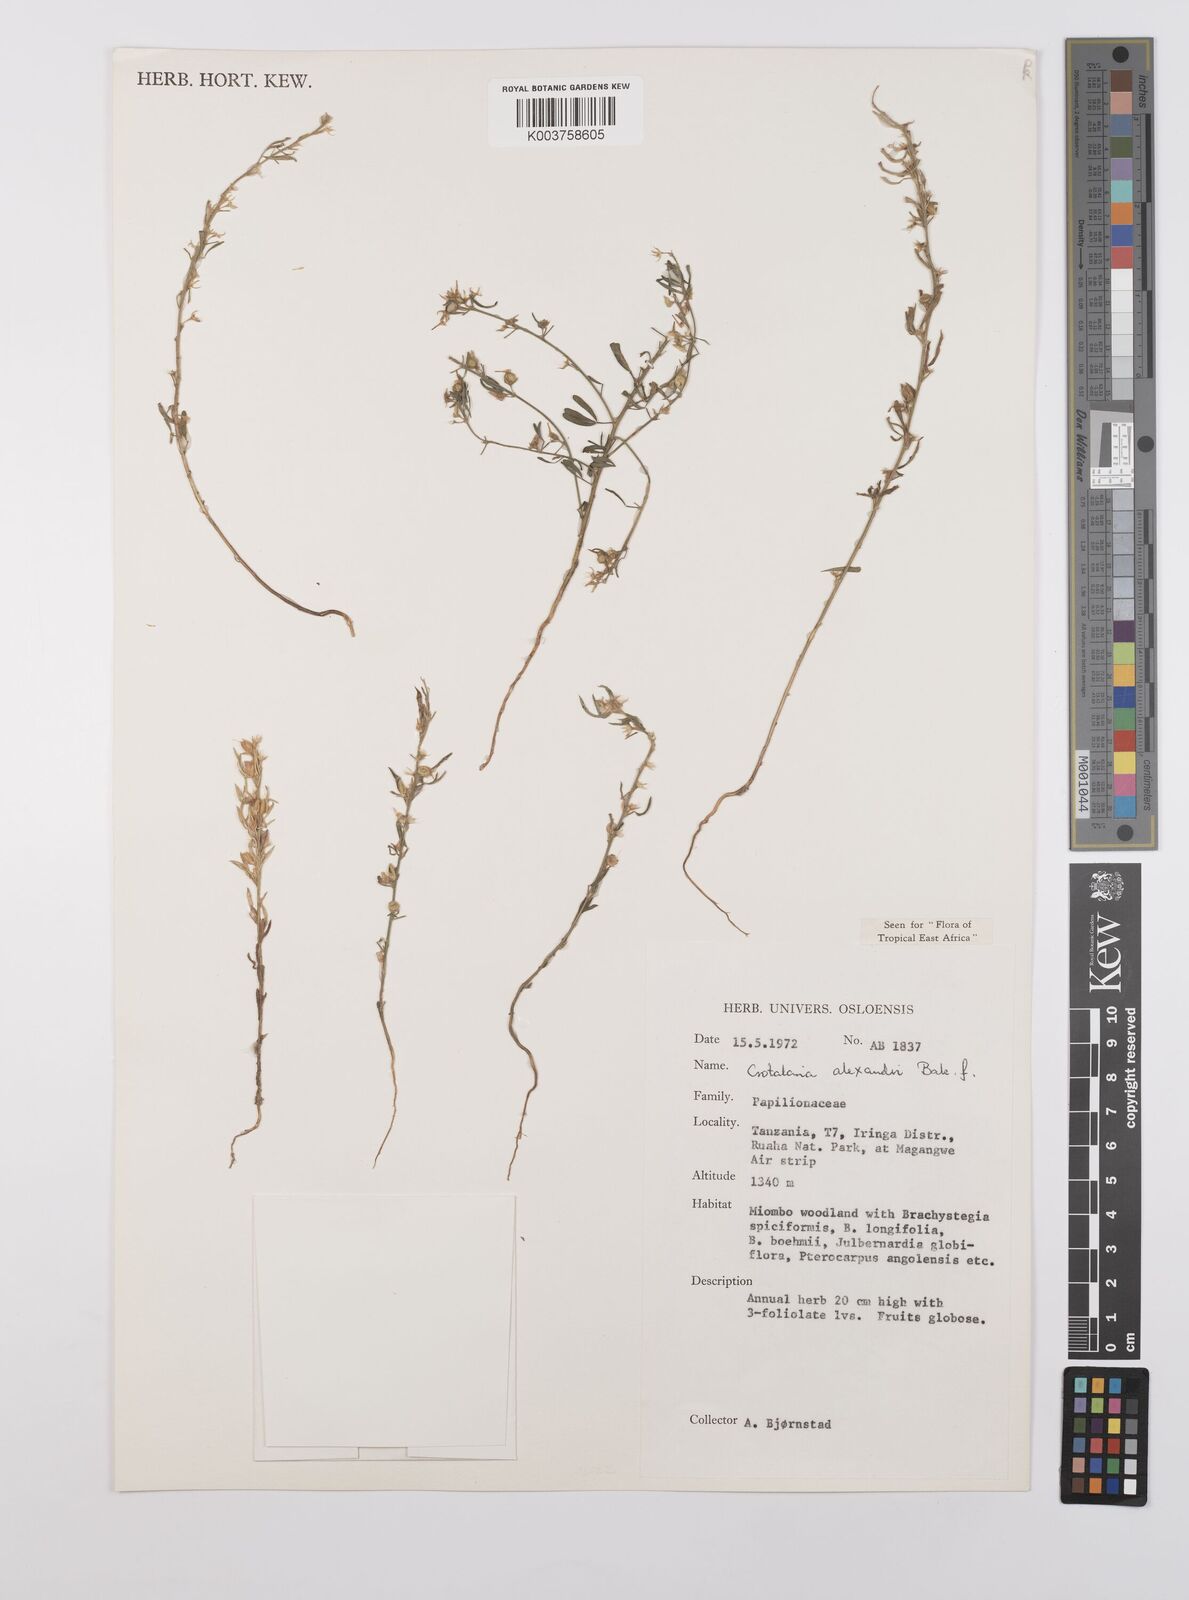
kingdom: Plantae
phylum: Tracheophyta
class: Magnoliopsida
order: Fabales
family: Fabaceae
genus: Crotalaria
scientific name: Crotalaria alexandri
